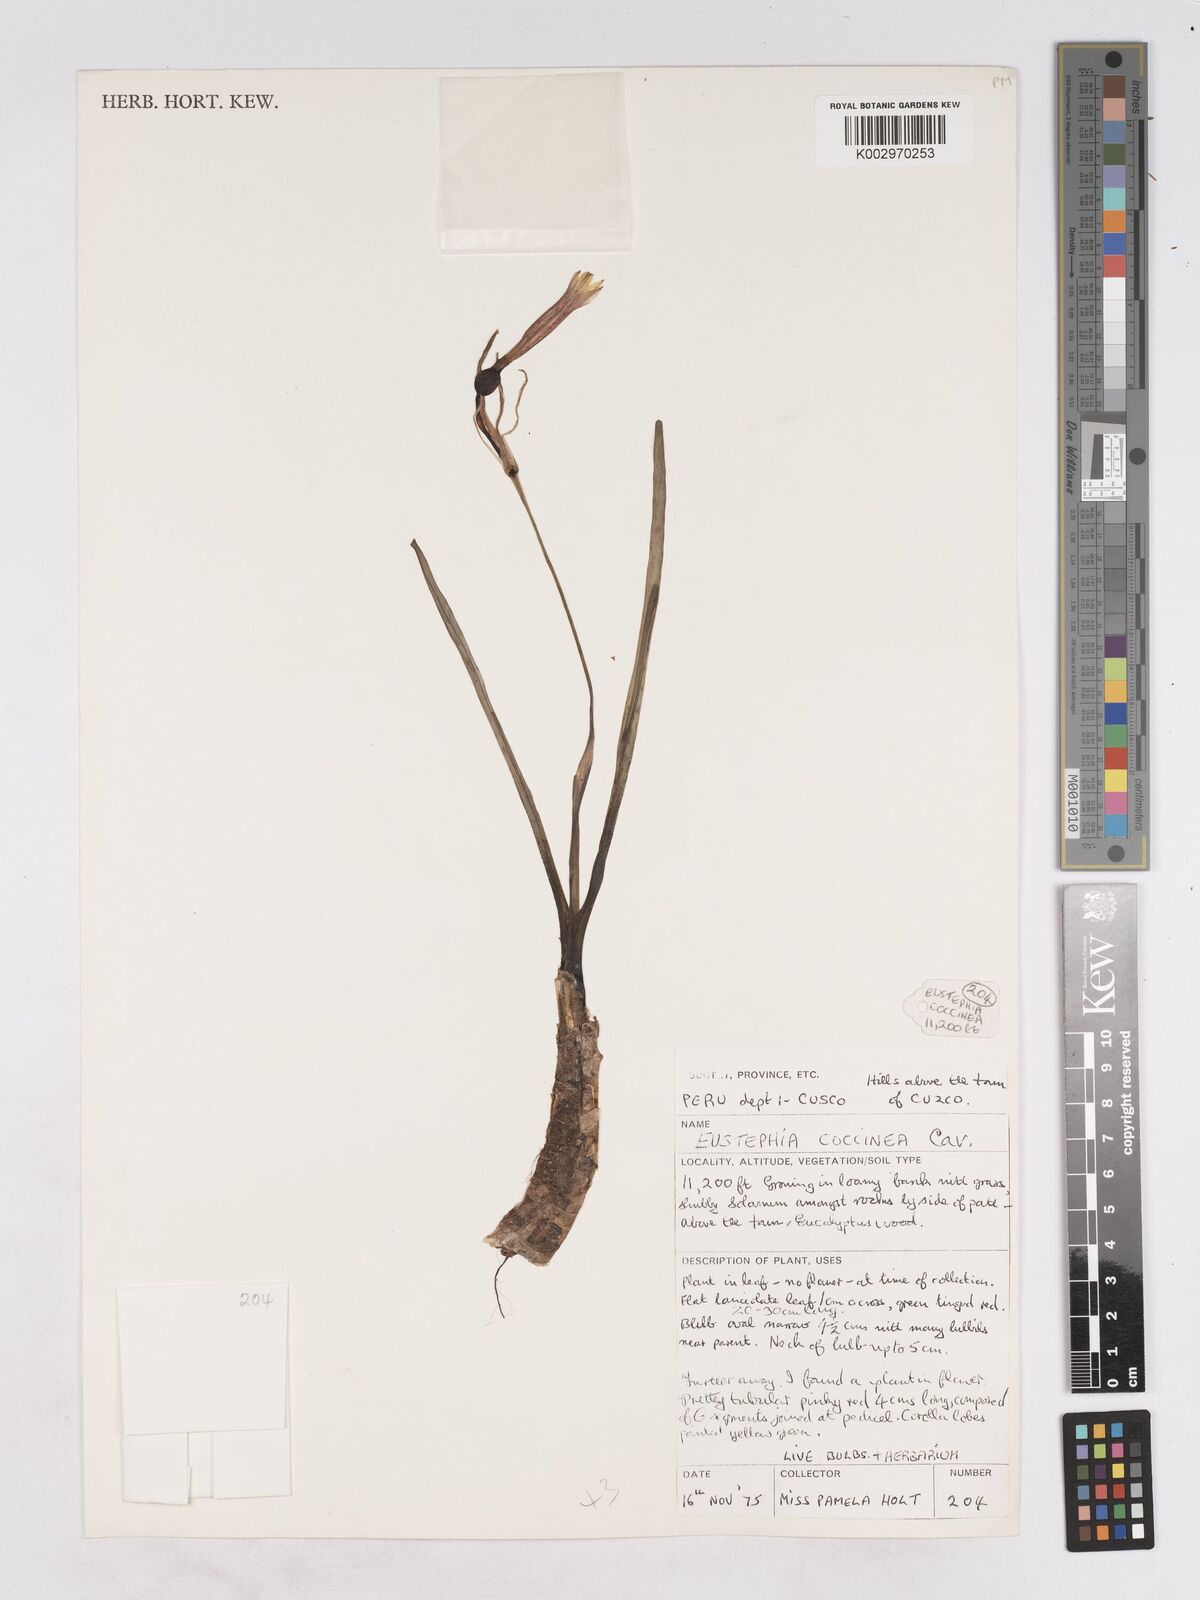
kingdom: Plantae
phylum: Tracheophyta
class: Liliopsida
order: Asparagales
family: Amaryllidaceae
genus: Eustephia
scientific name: Eustephia coccinea
